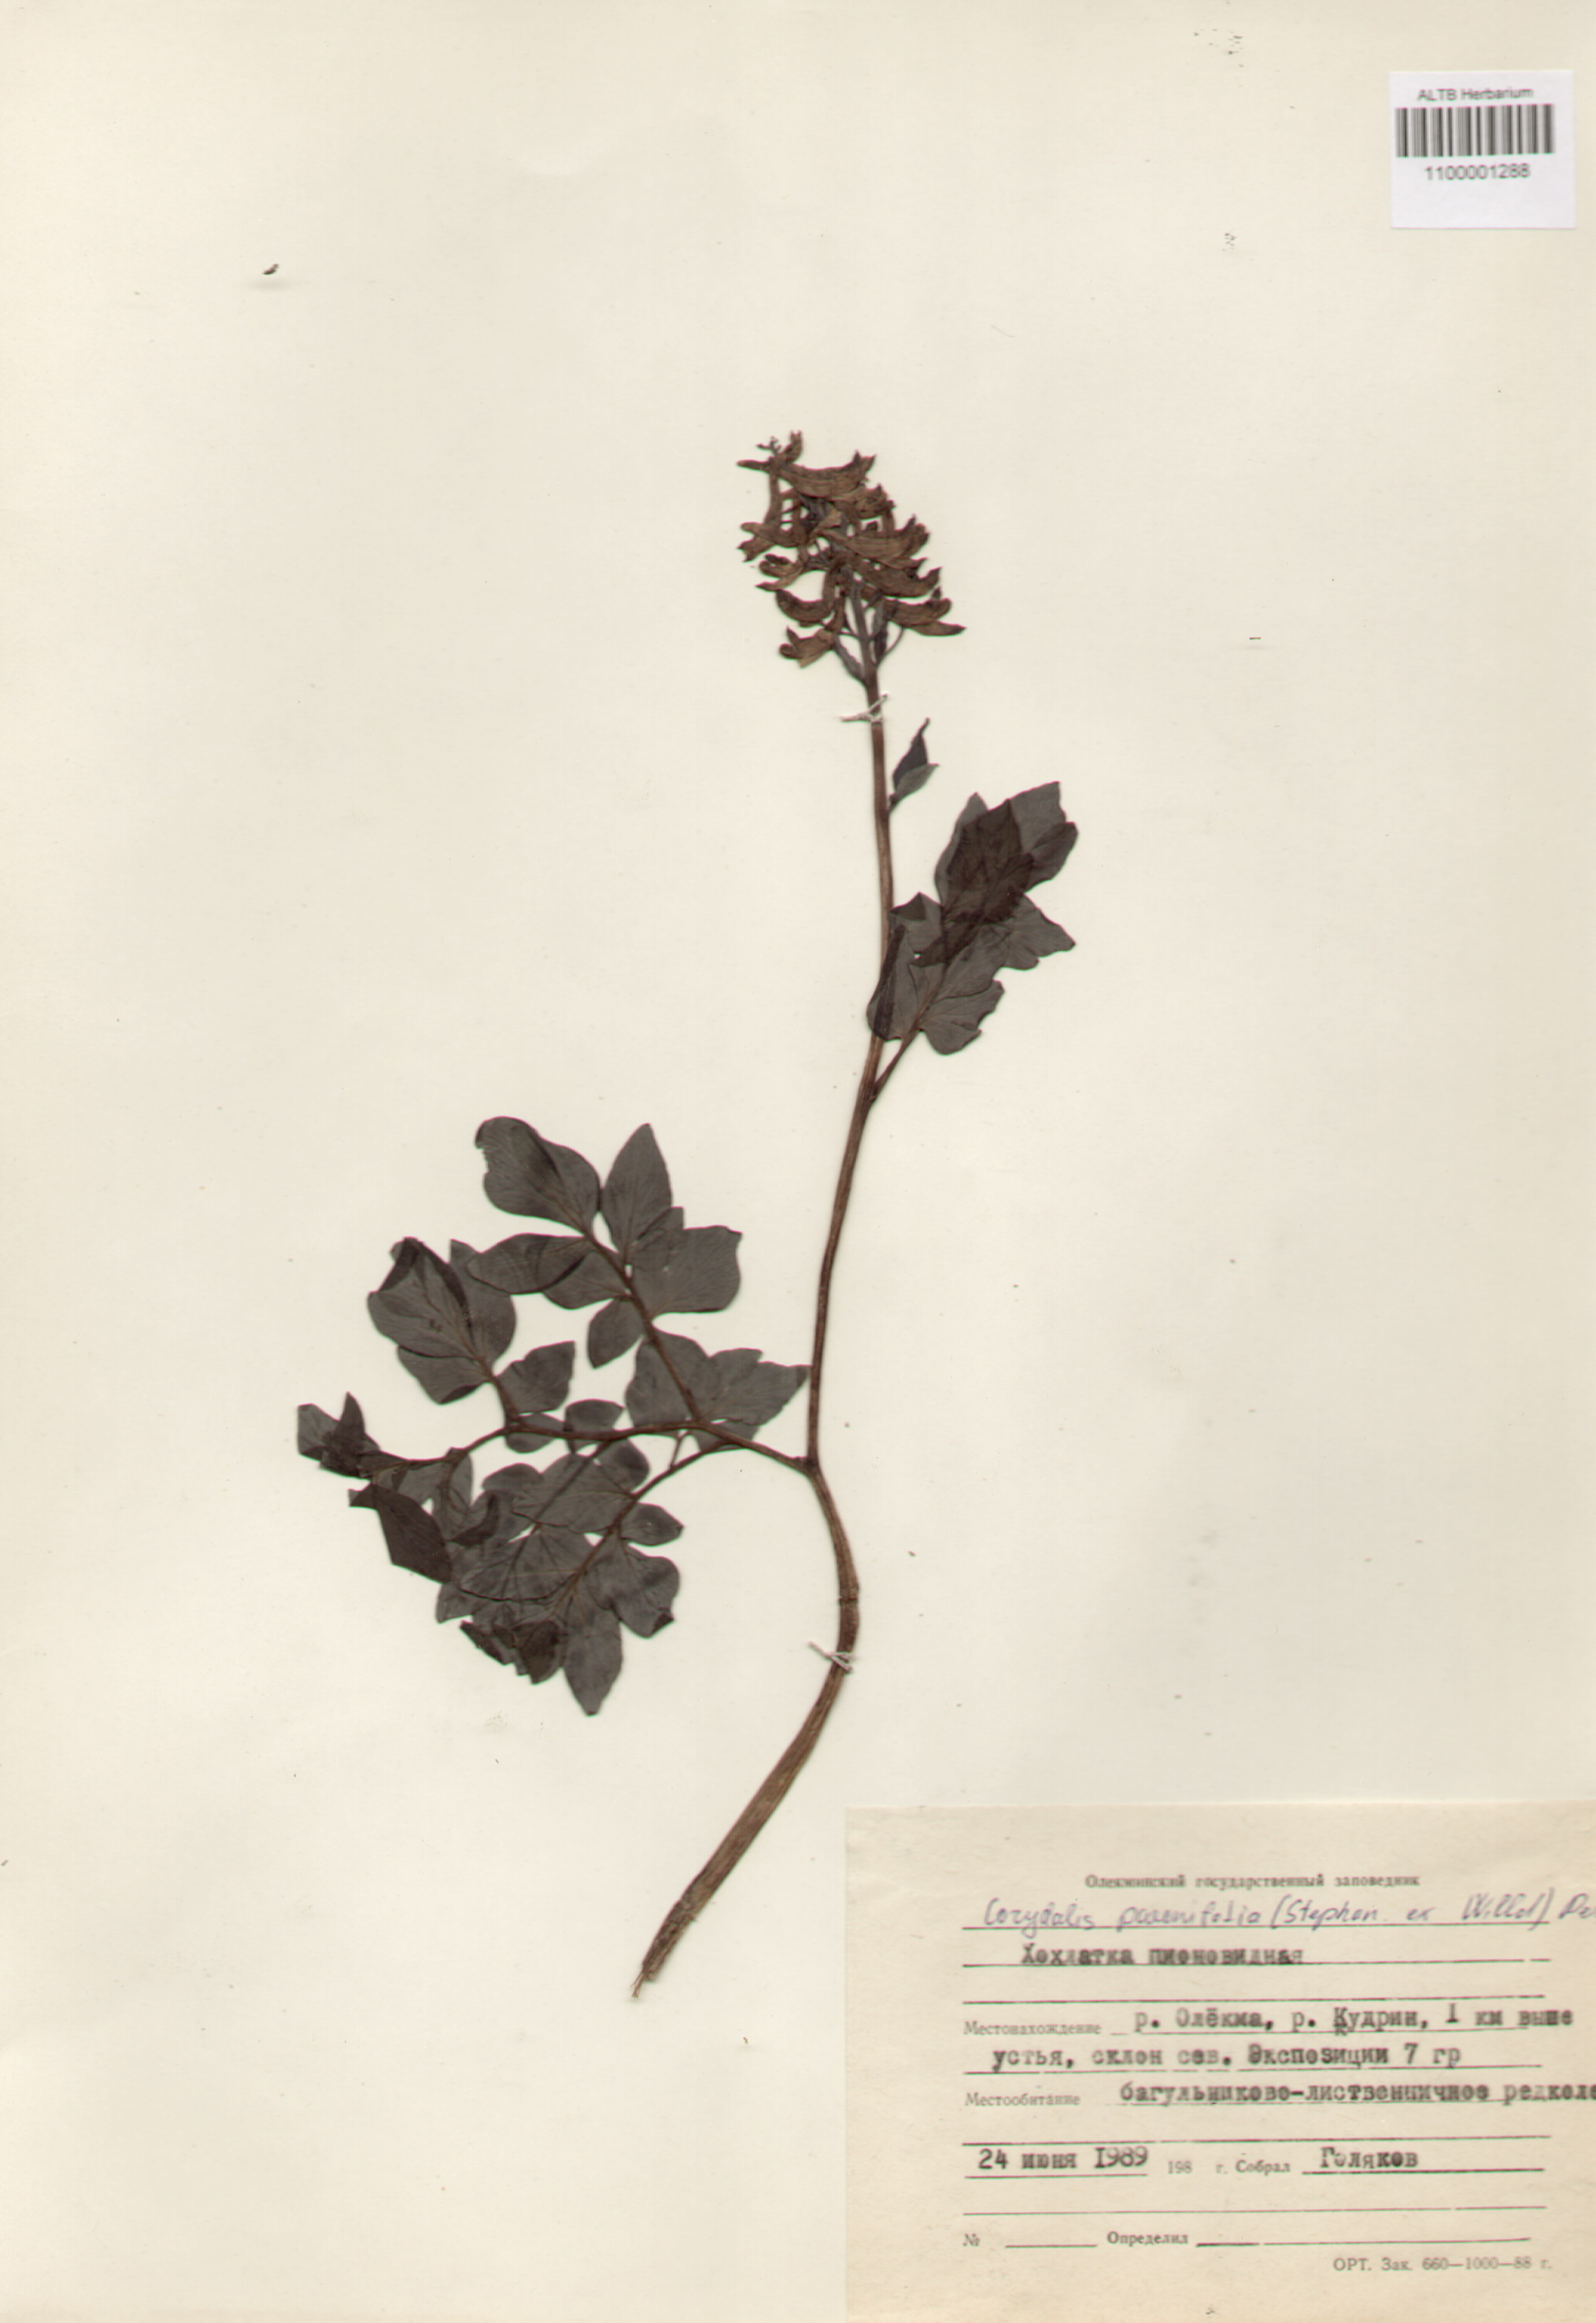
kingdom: Plantae
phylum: Tracheophyta
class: Magnoliopsida
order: Ranunculales
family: Papaveraceae
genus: Corydalis
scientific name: Corydalis paeoniifolia
